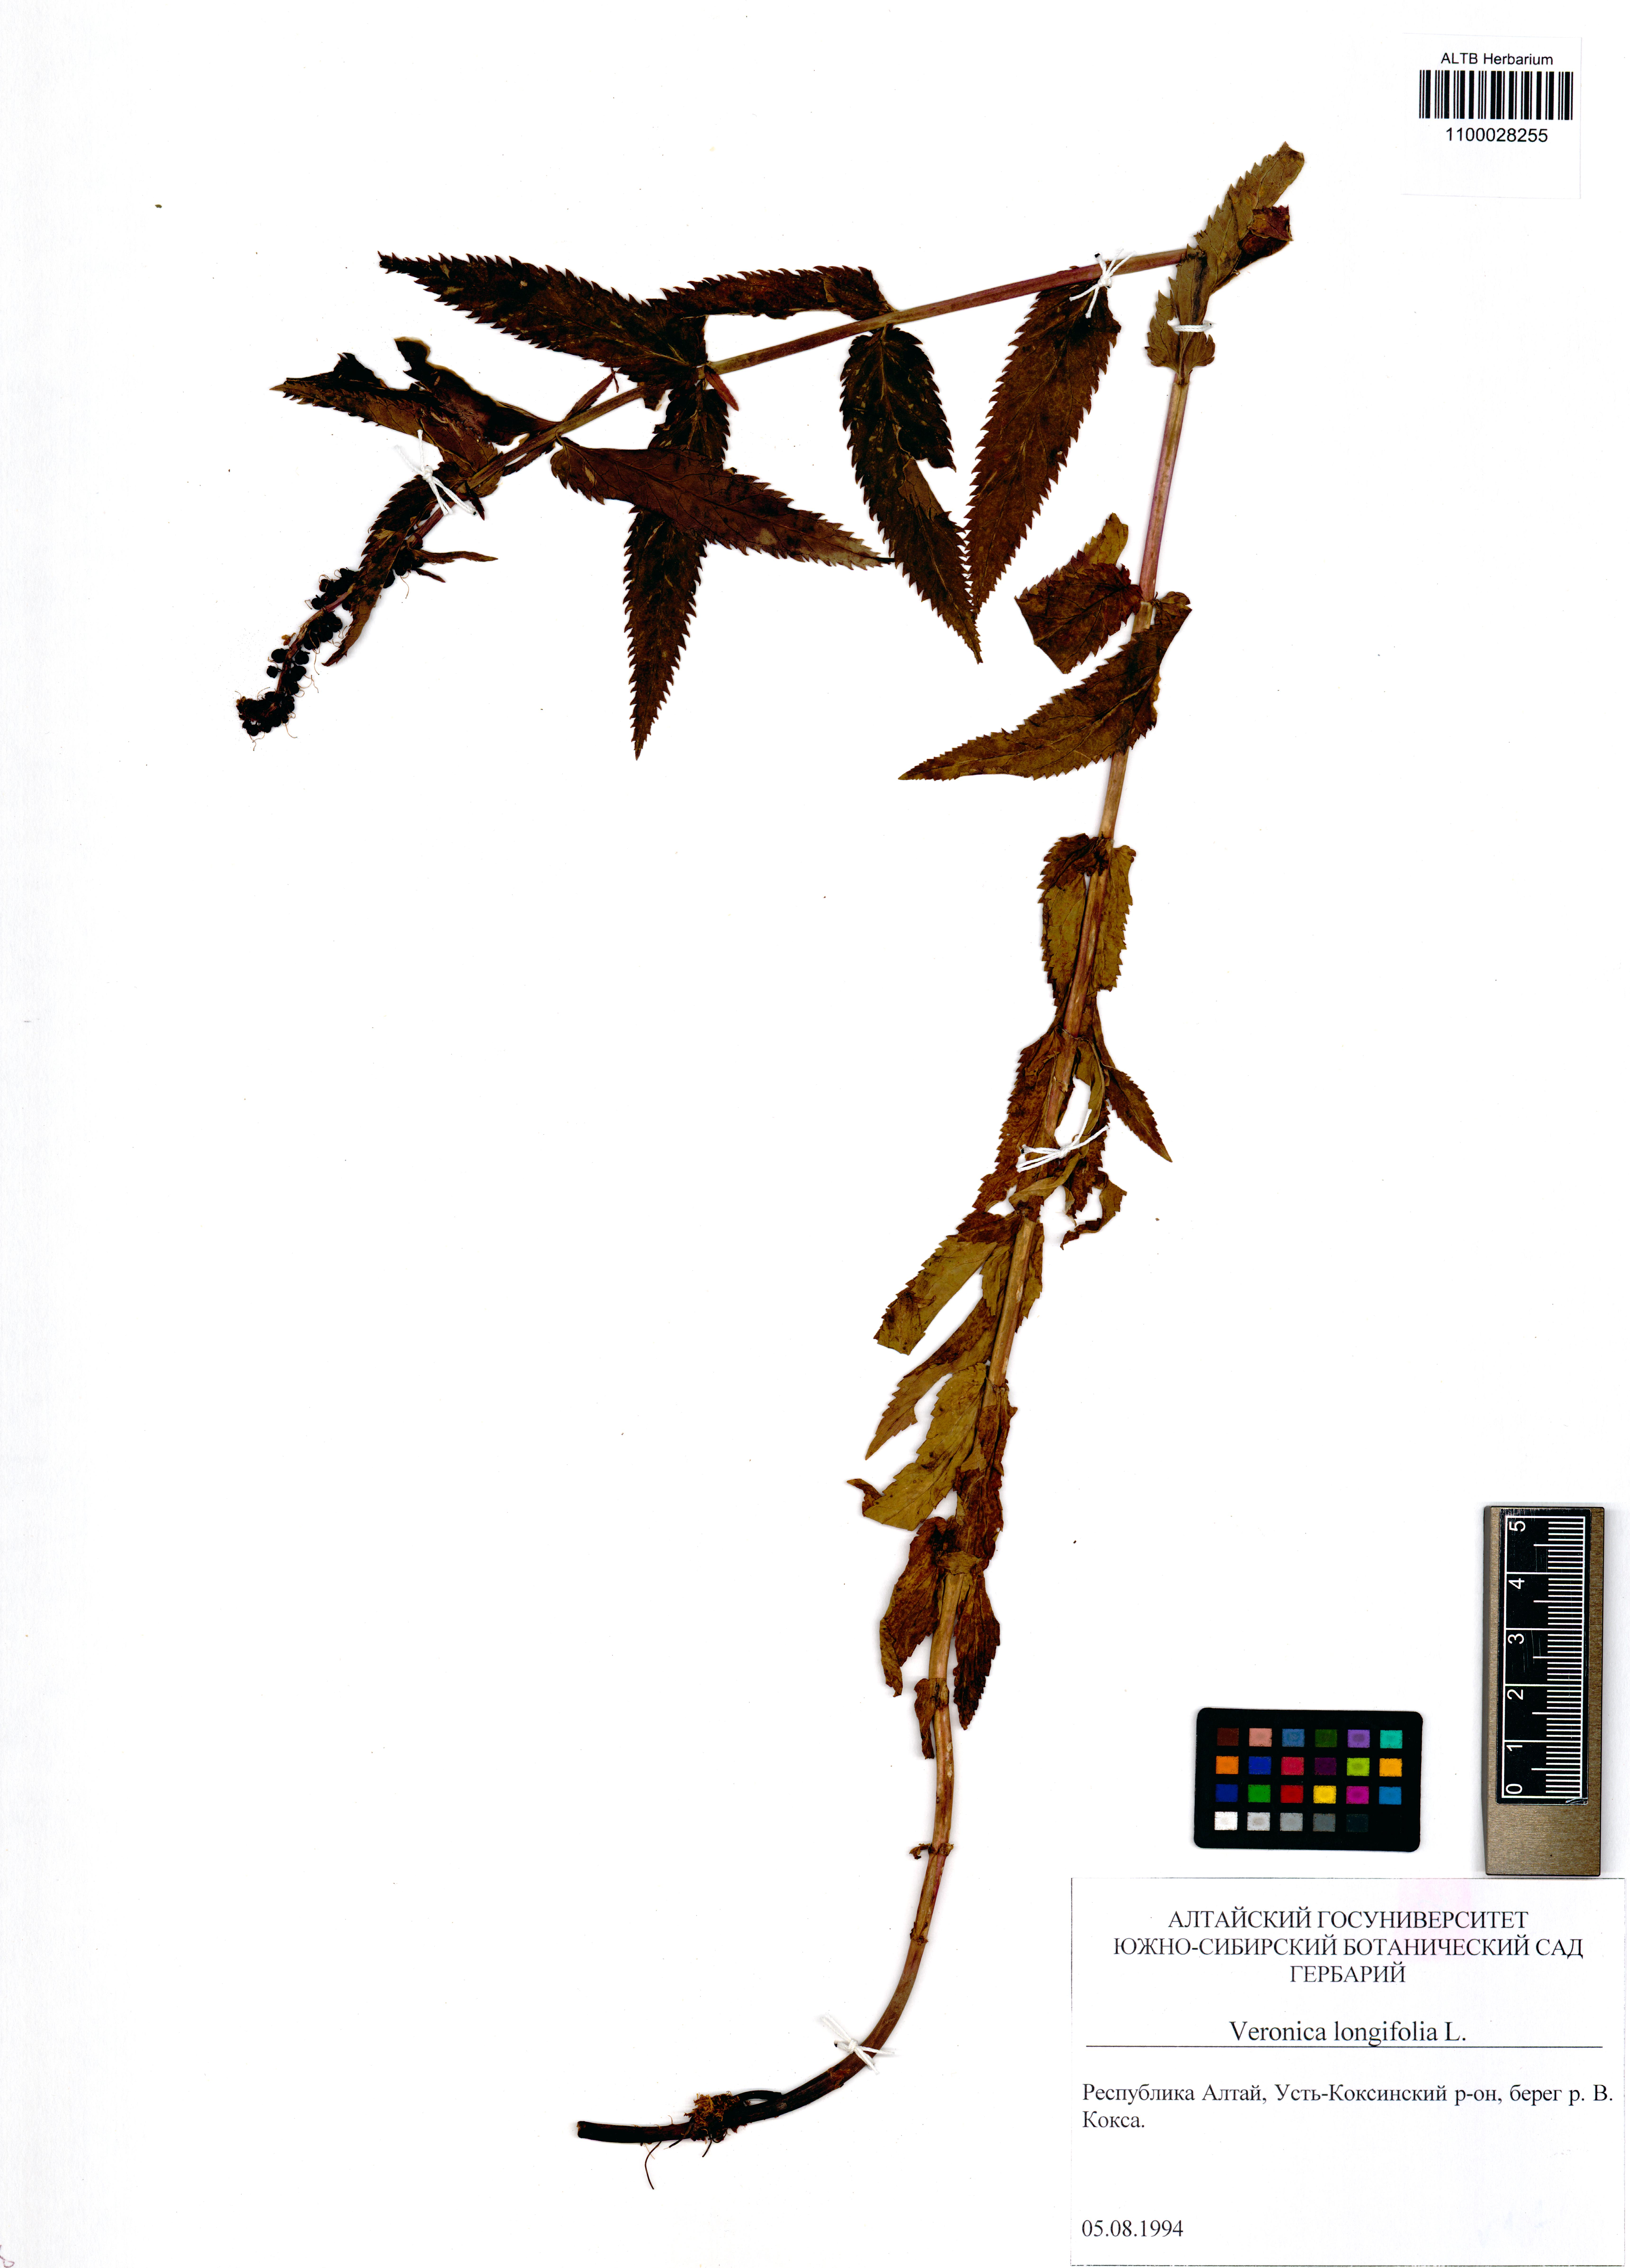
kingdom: Plantae
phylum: Tracheophyta
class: Magnoliopsida
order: Lamiales
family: Plantaginaceae
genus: Veronica
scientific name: Veronica longifolia
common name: Garden speedwell
